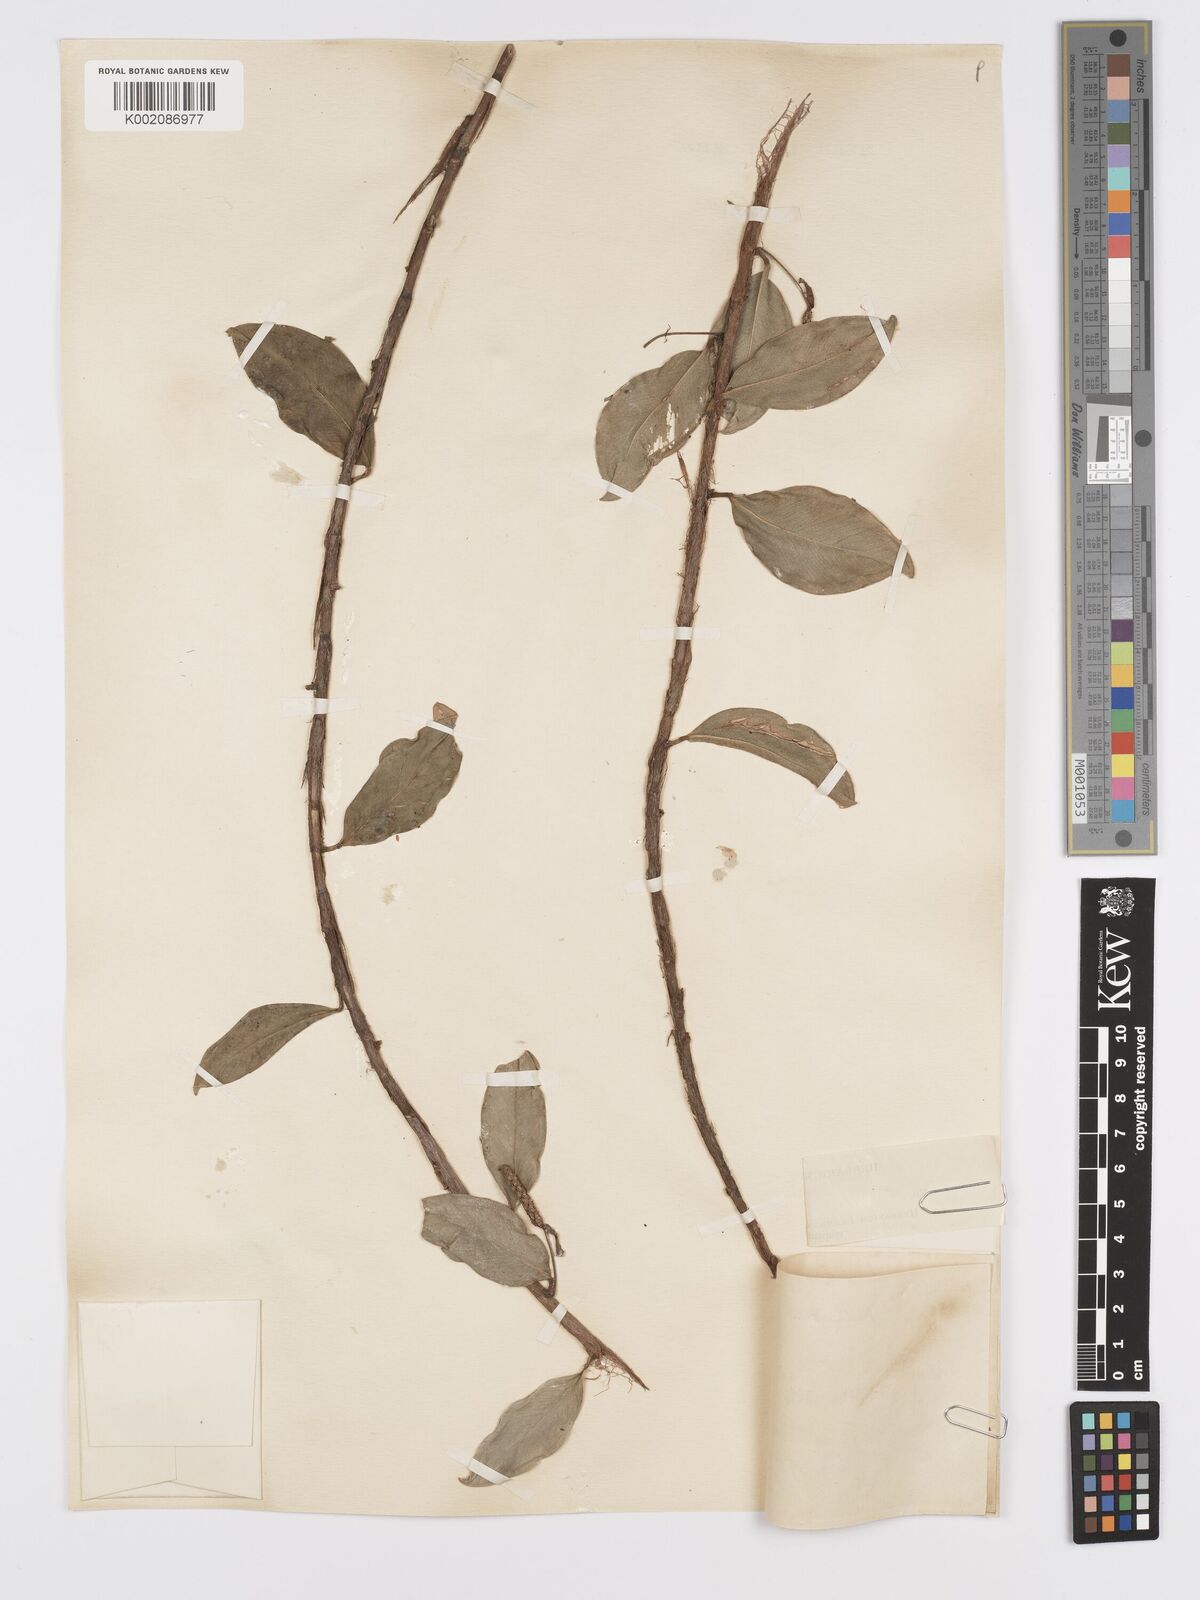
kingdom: Plantae
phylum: Tracheophyta
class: Liliopsida
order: Alismatales
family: Araceae
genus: Anthurium
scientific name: Anthurium scandens
